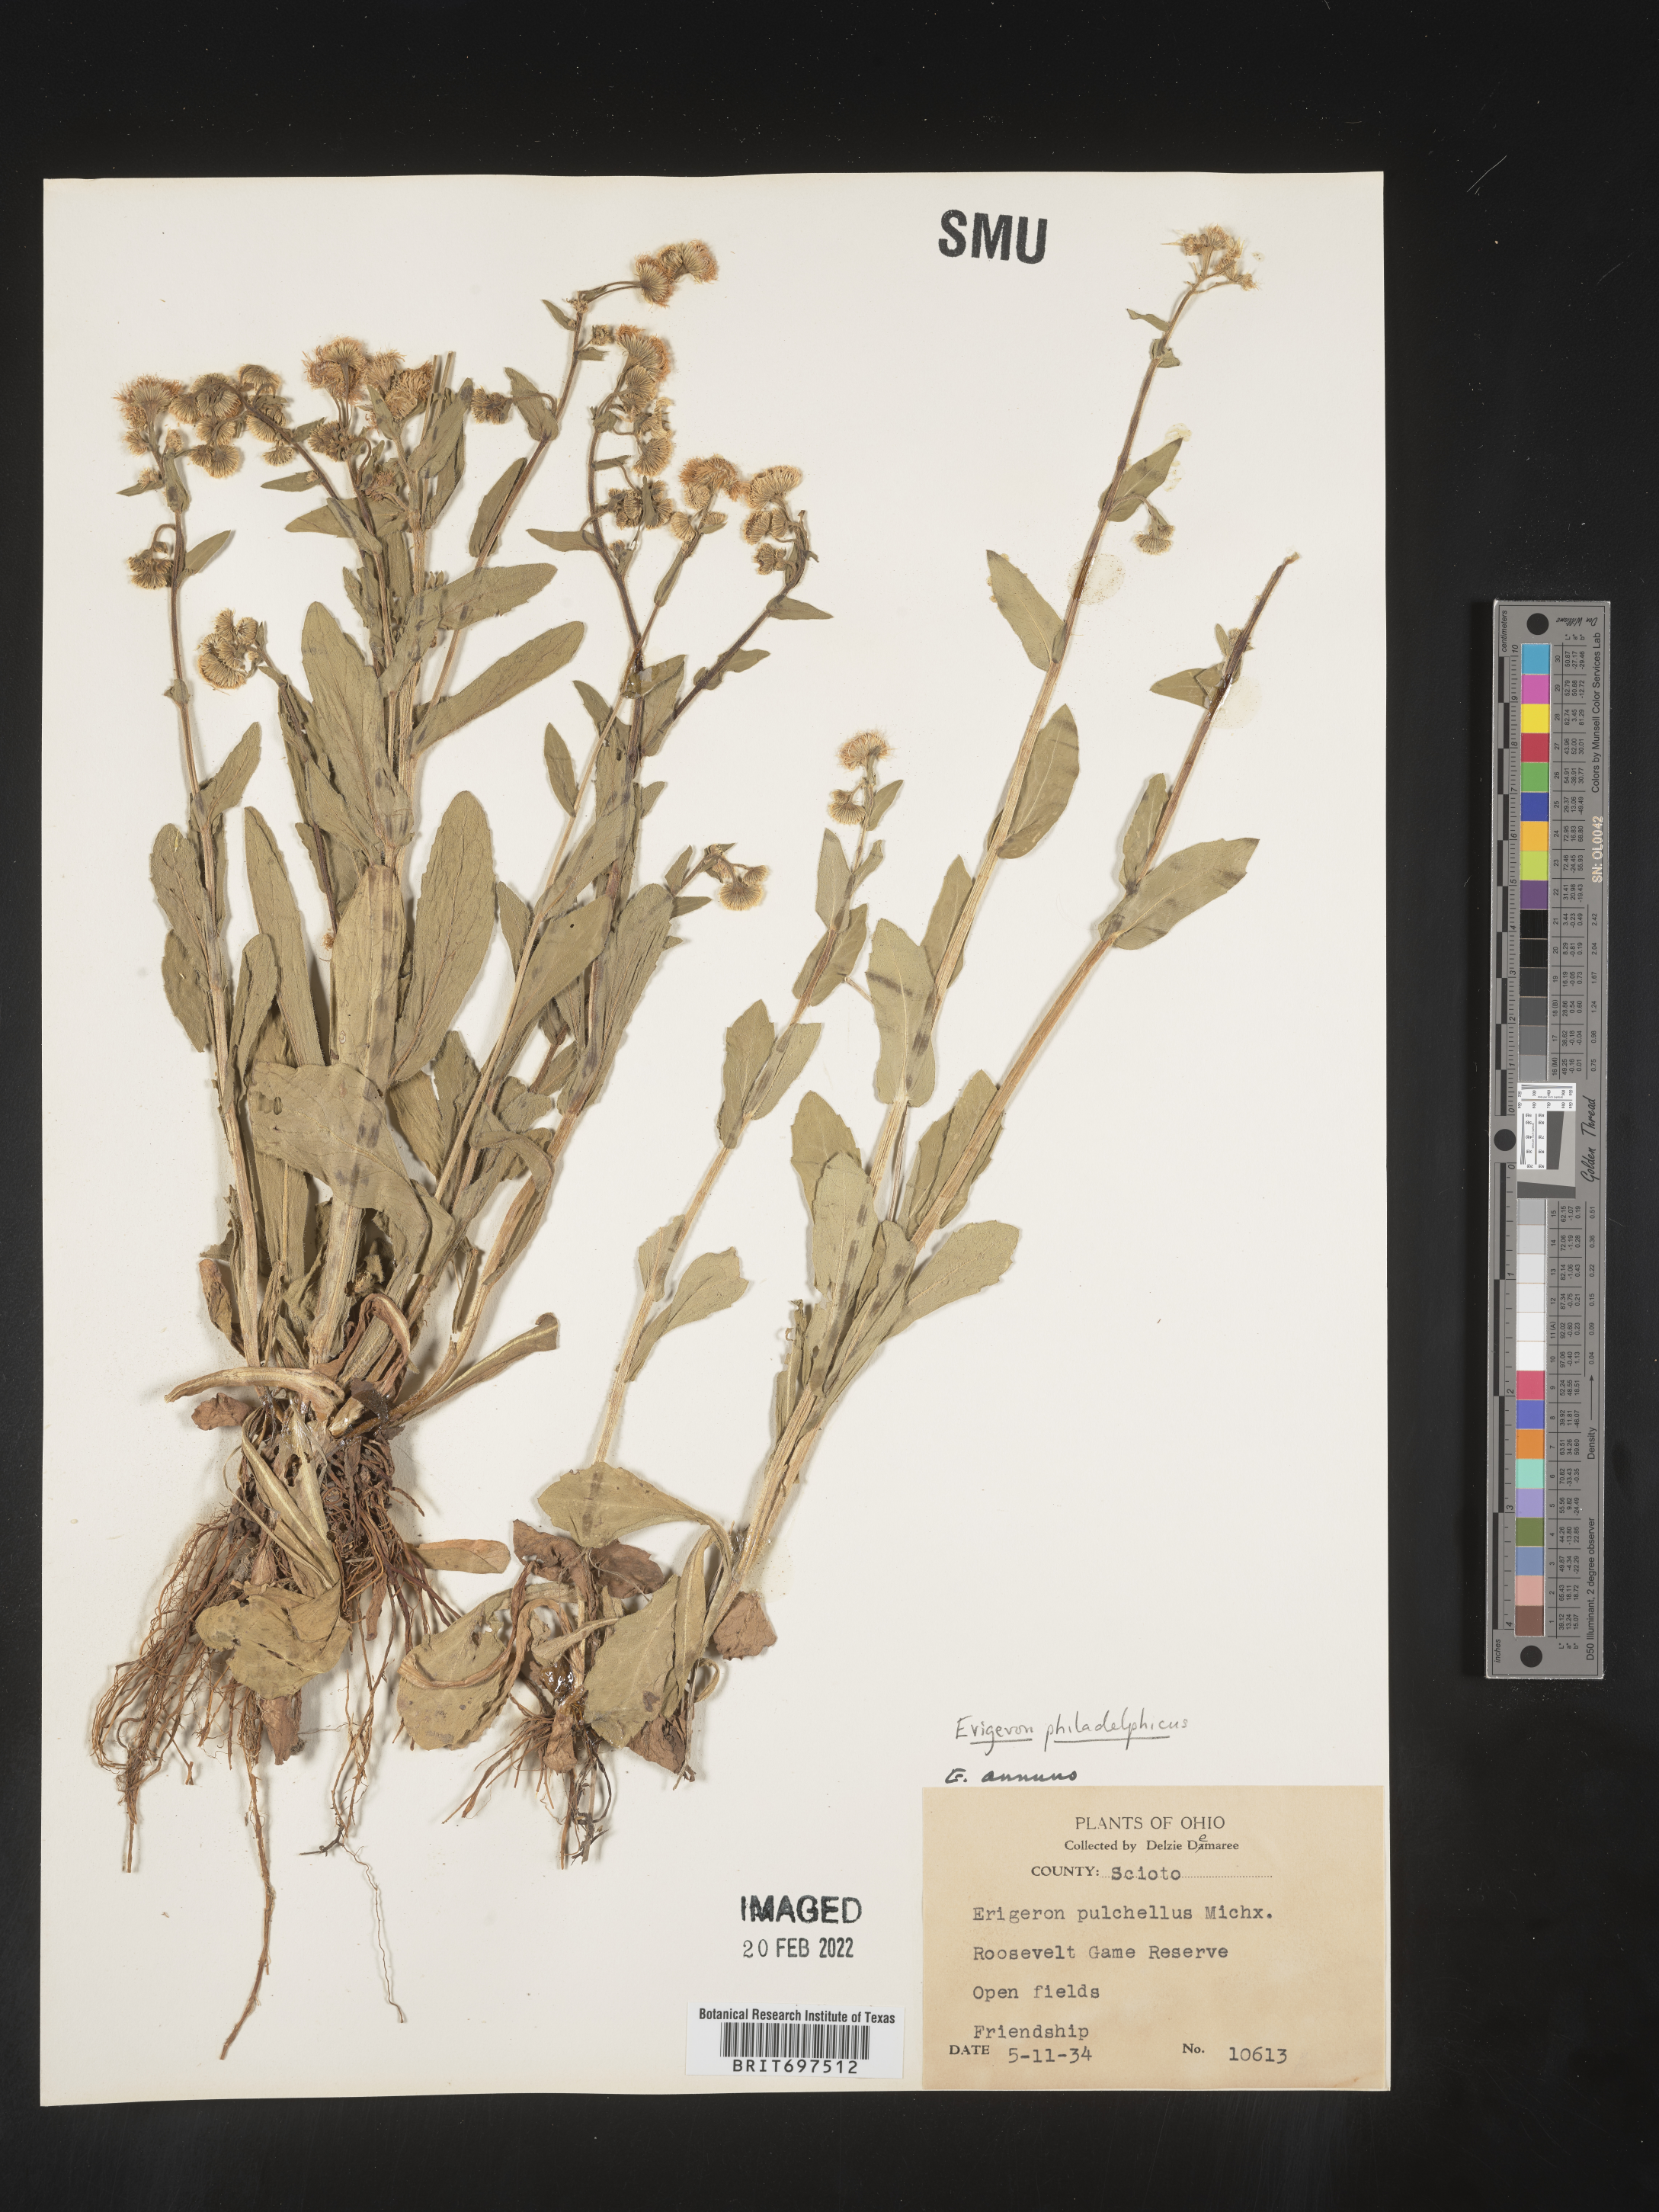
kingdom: Plantae
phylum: Tracheophyta
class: Magnoliopsida
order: Asterales
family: Asteraceae
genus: Erigeron
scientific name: Erigeron philadelphicus
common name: Robin's-plantain
